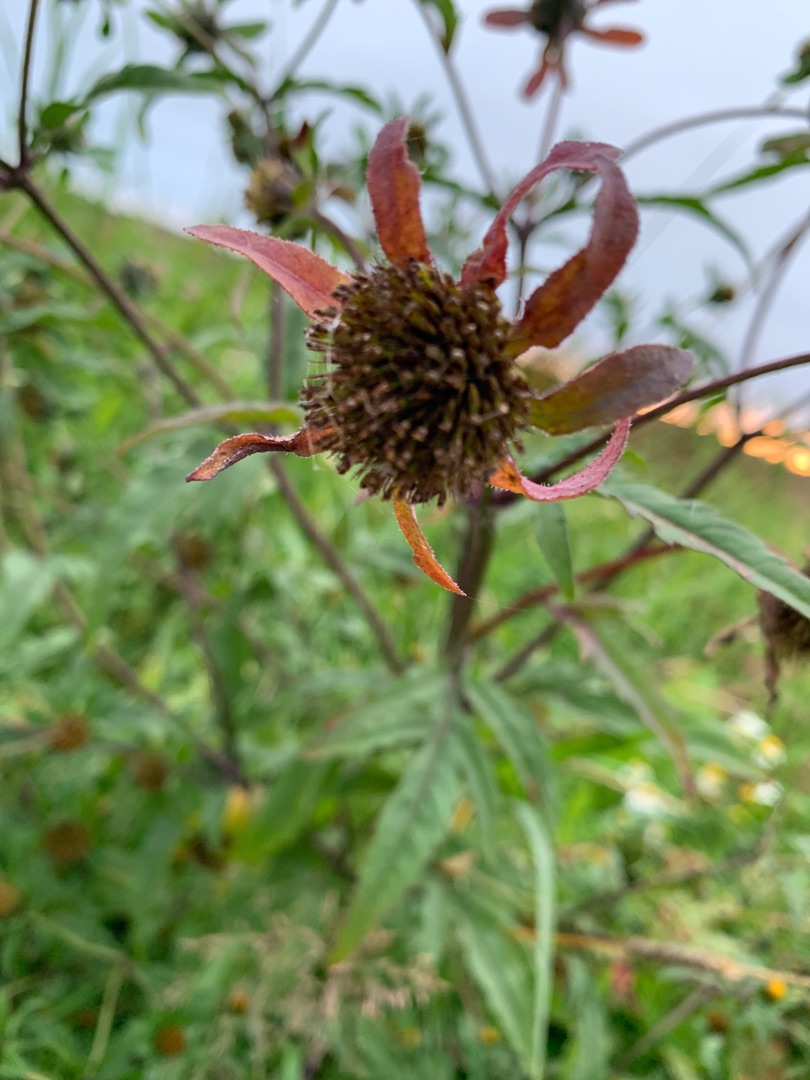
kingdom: Plantae
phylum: Tracheophyta
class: Magnoliopsida
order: Asterales
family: Asteraceae
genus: Bidens
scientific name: Bidens cernua
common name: Nikkende brøndsel
